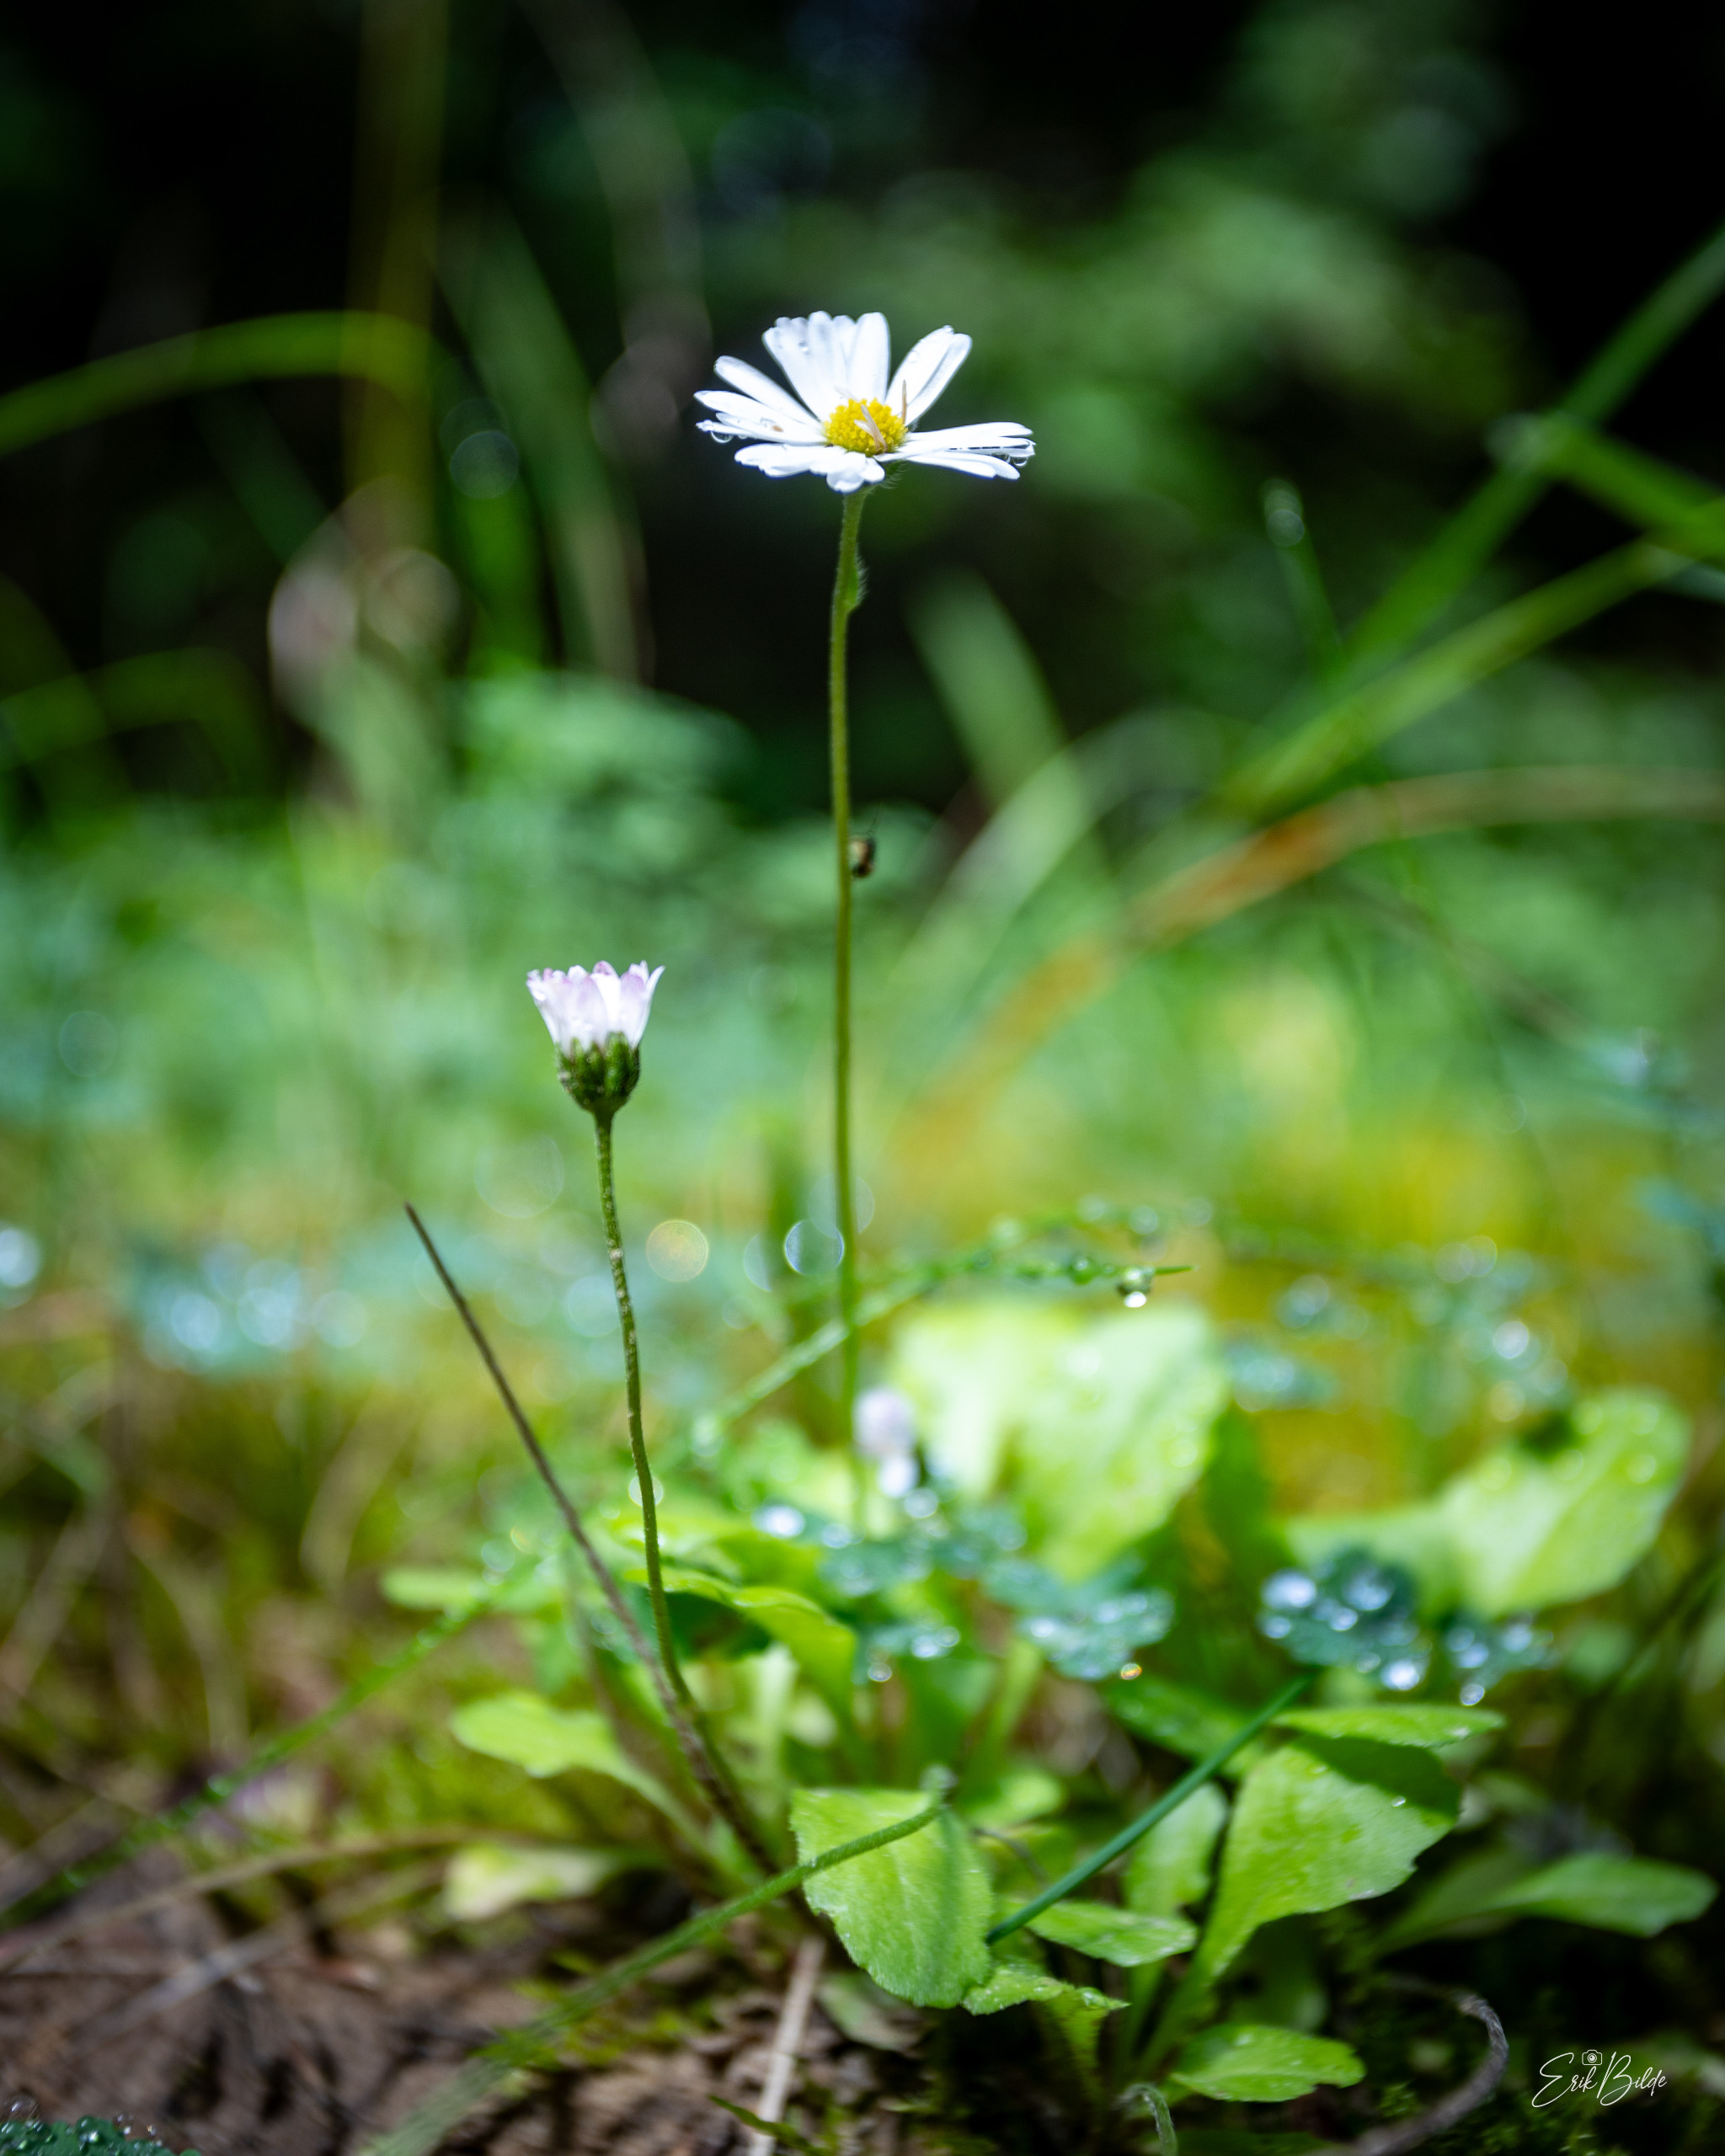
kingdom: Plantae
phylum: Tracheophyta
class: Magnoliopsida
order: Asterales
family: Asteraceae
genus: Bellis
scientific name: Bellis perennis
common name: Tusindfryd
